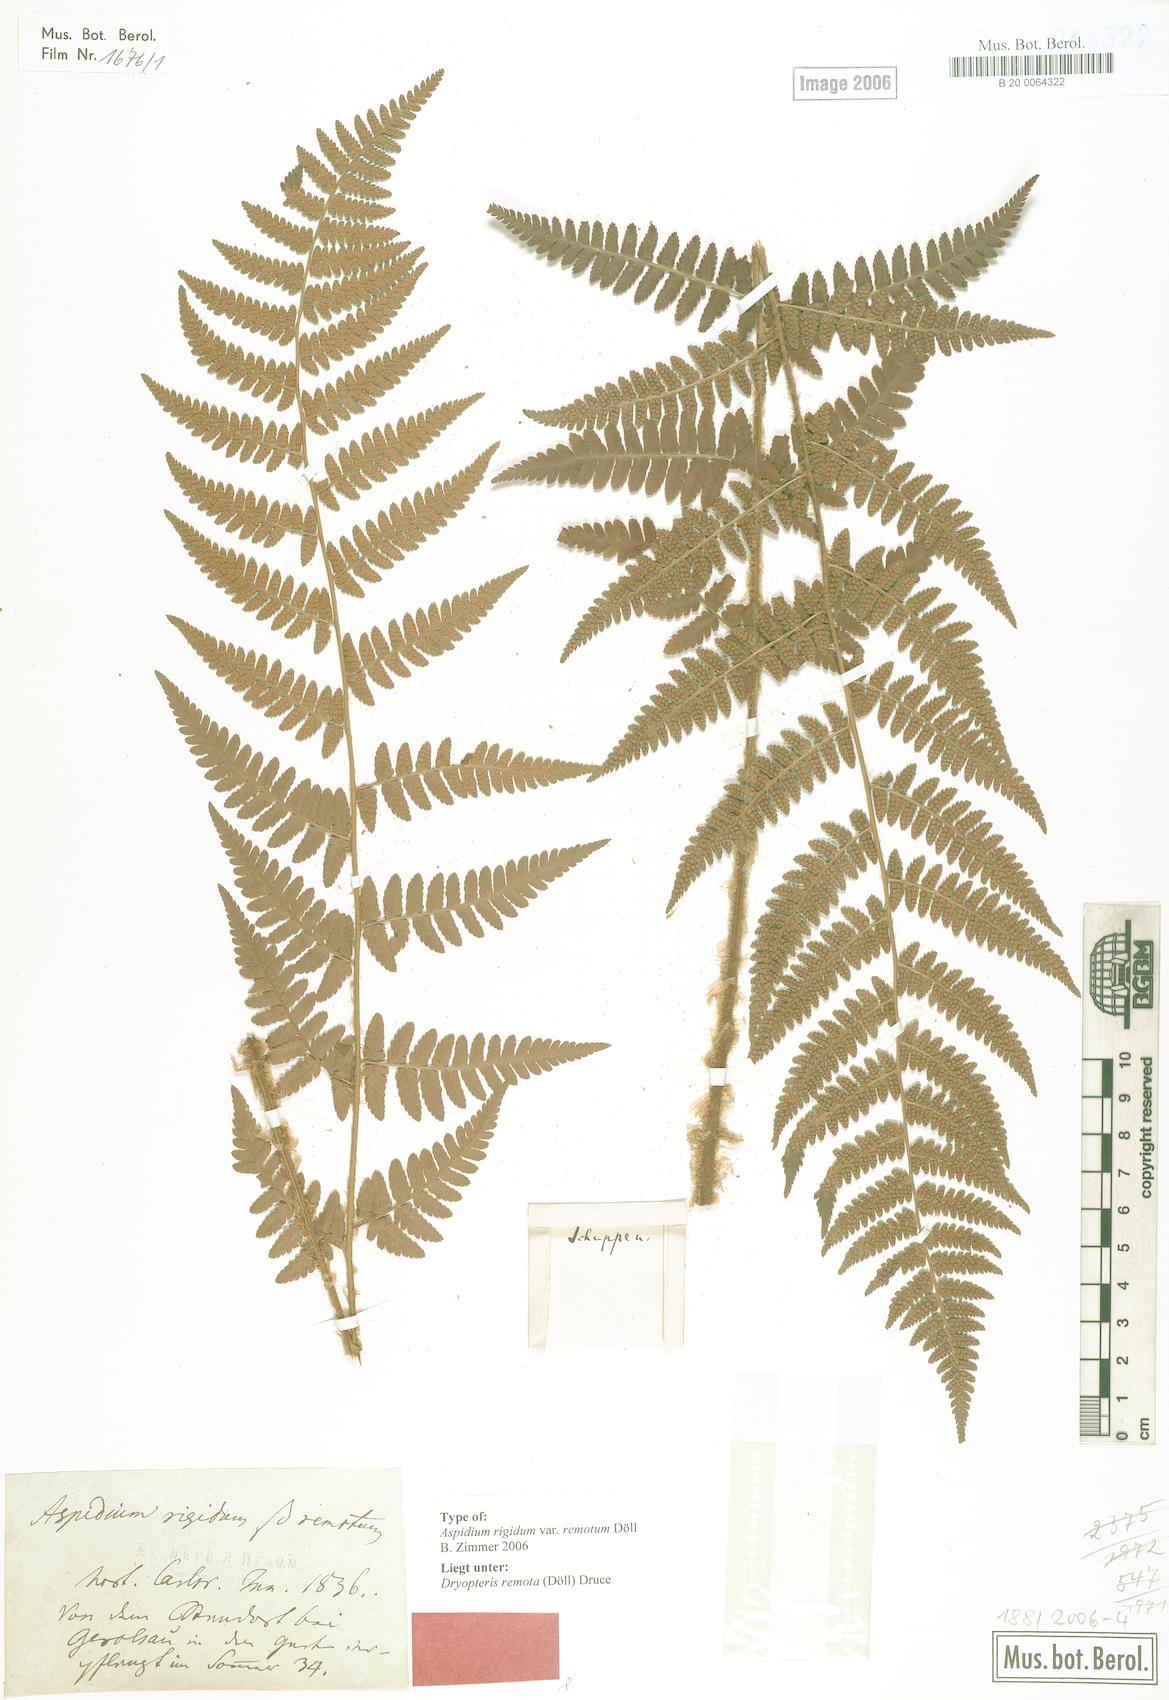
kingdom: Plantae
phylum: Tracheophyta
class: Polypodiopsida
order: Polypodiales
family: Dryopteridaceae
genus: Dryopteris
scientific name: Dryopteris remota
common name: Scaly buckler-fern
